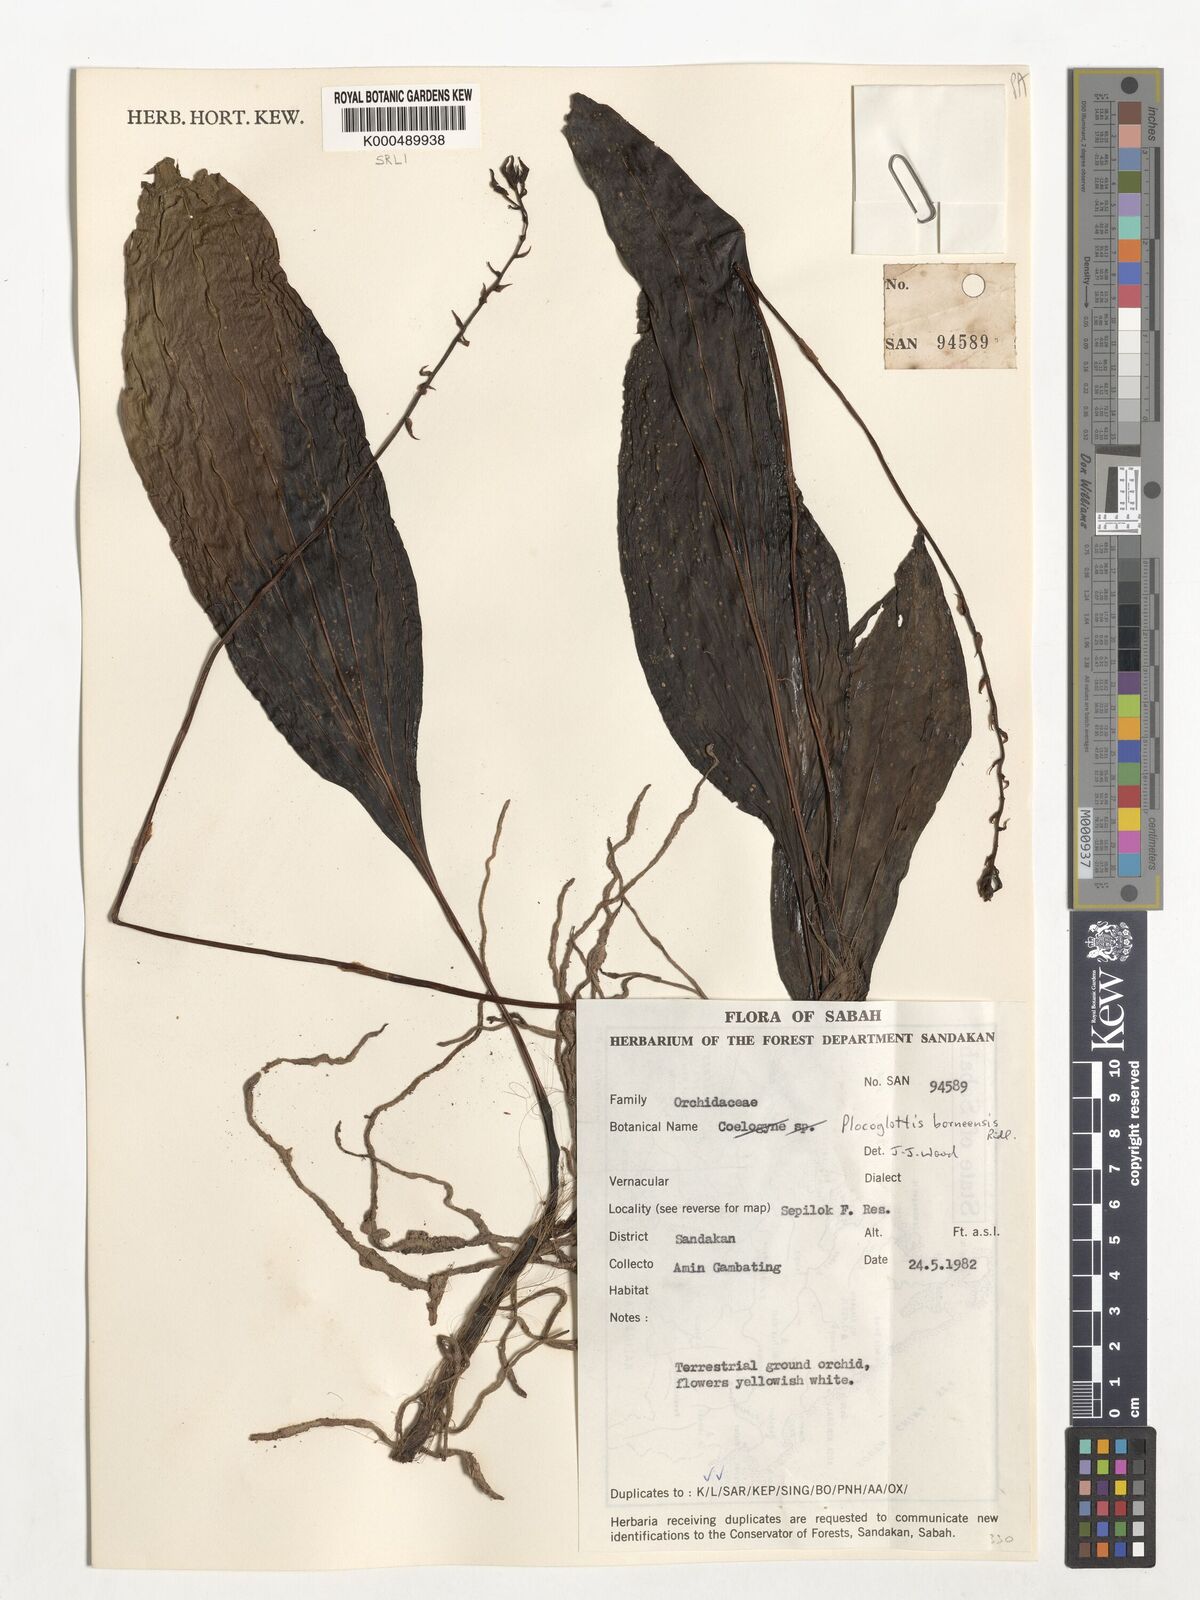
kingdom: Plantae
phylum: Tracheophyta
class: Liliopsida
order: Asparagales
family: Orchidaceae
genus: Plocoglottis
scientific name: Plocoglottis borneensis
